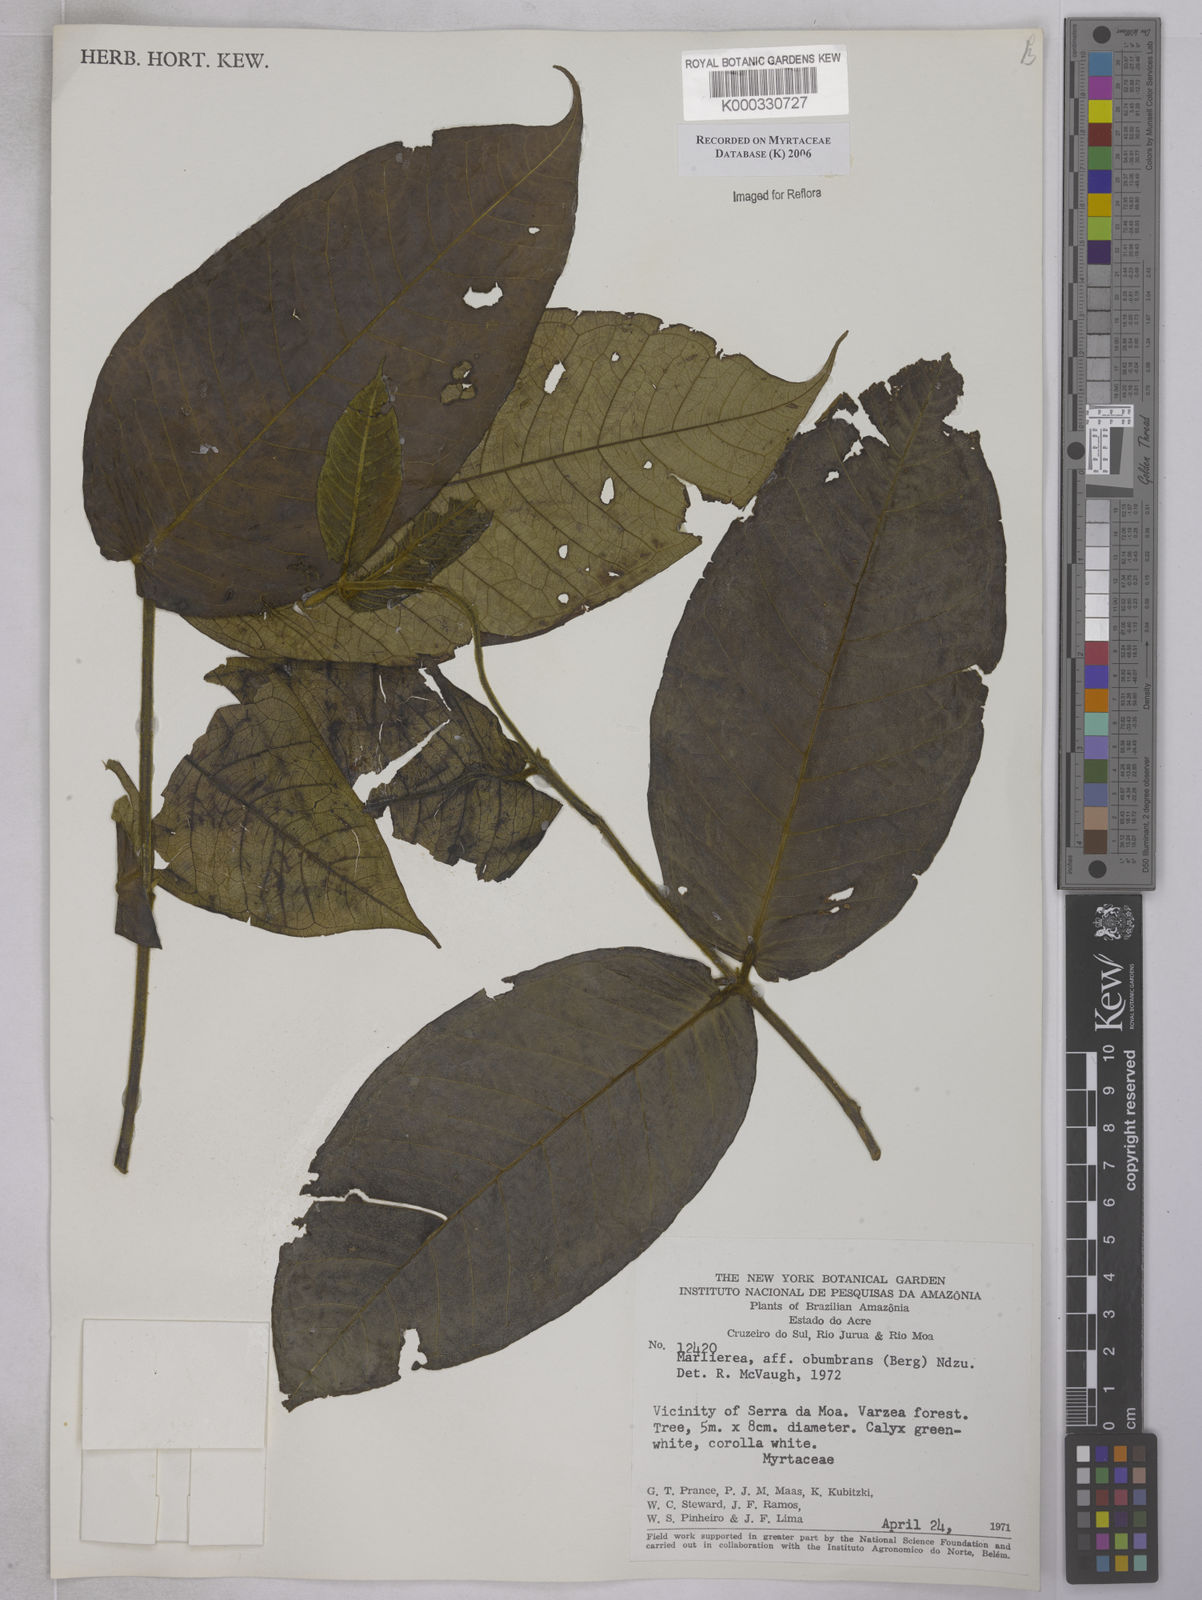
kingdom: Plantae
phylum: Tracheophyta
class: Magnoliopsida
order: Myrtales
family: Myrtaceae
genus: Myrcia
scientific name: Myrcia obumbrans
